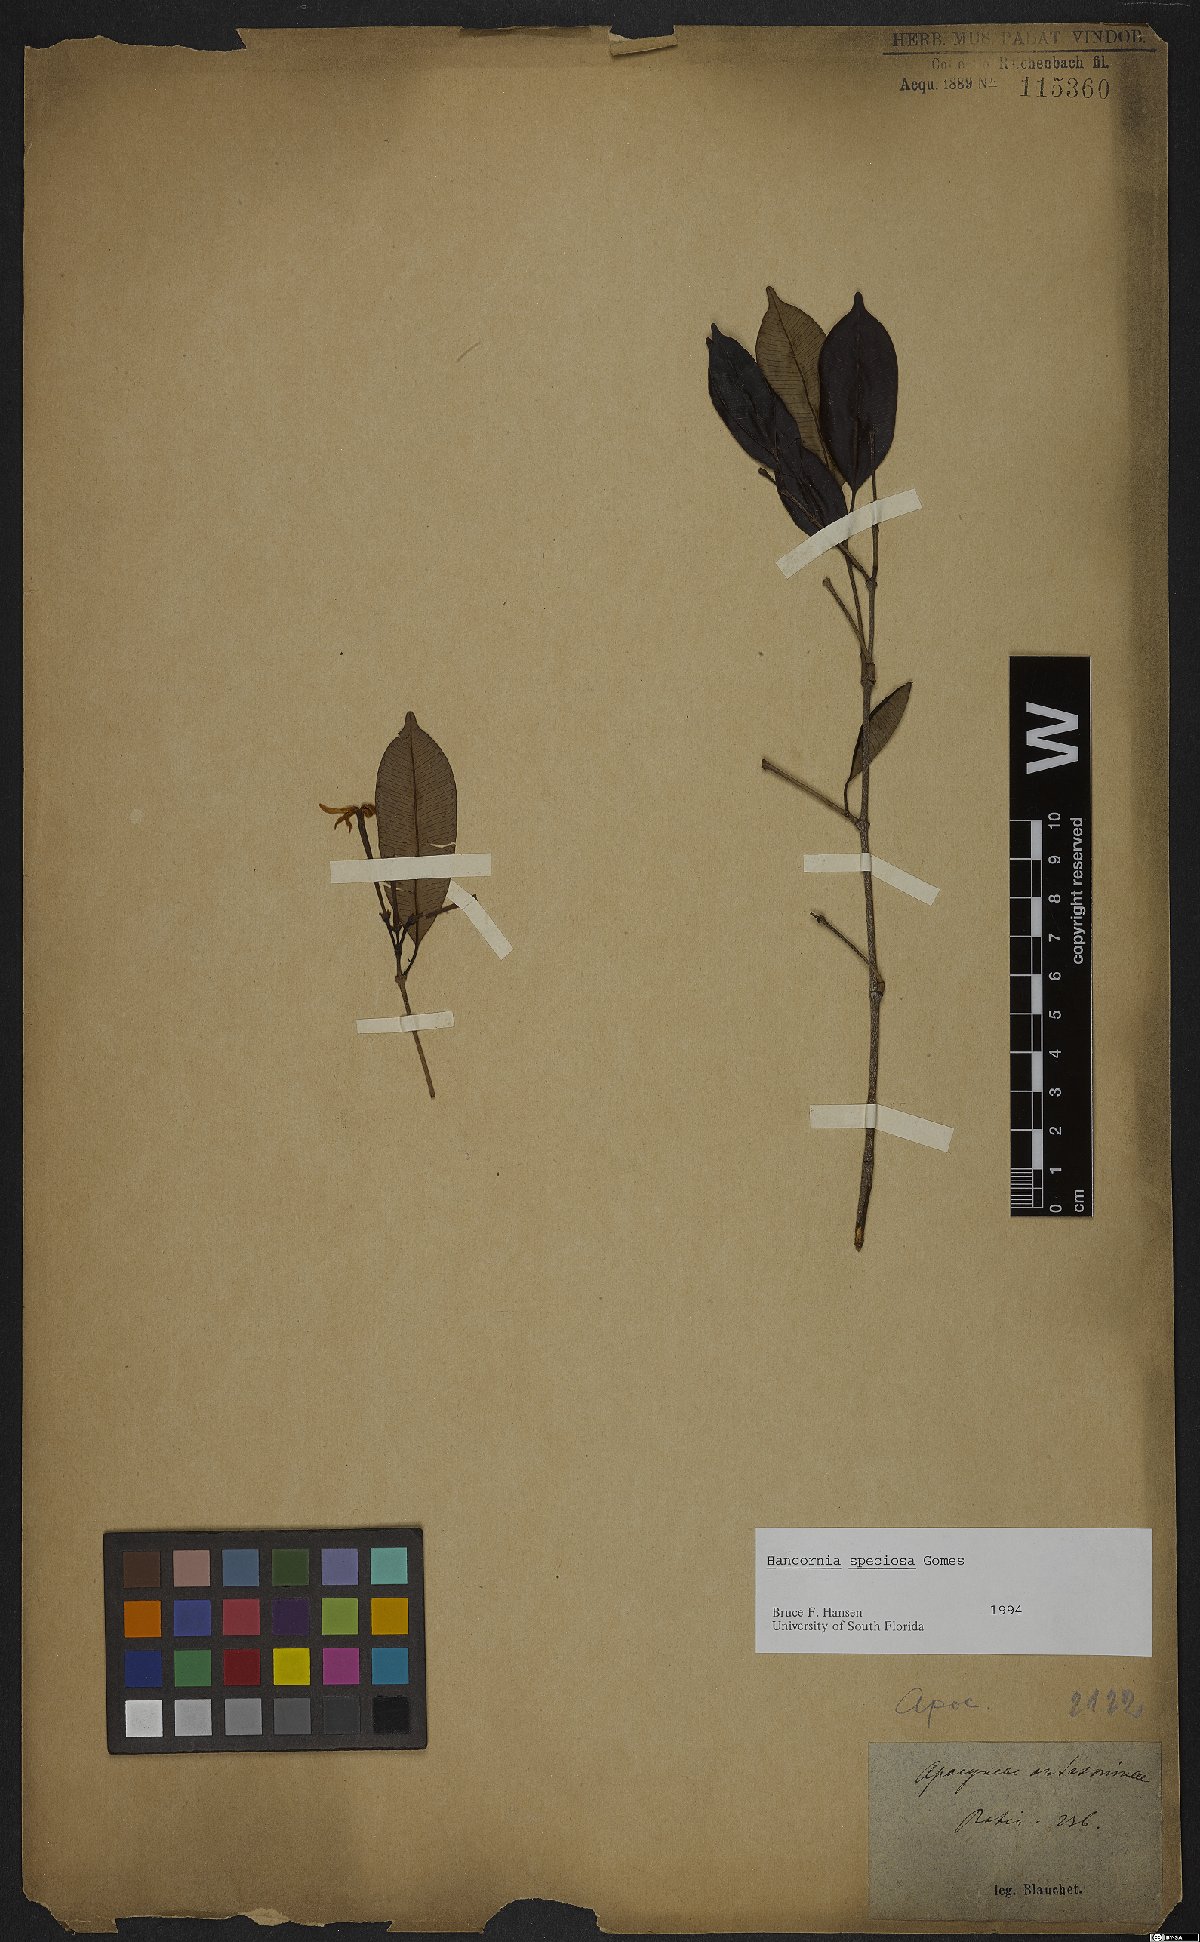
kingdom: Plantae
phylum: Tracheophyta
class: Magnoliopsida
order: Gentianales
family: Apocynaceae
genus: Hancornia
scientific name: Hancornia speciosa
